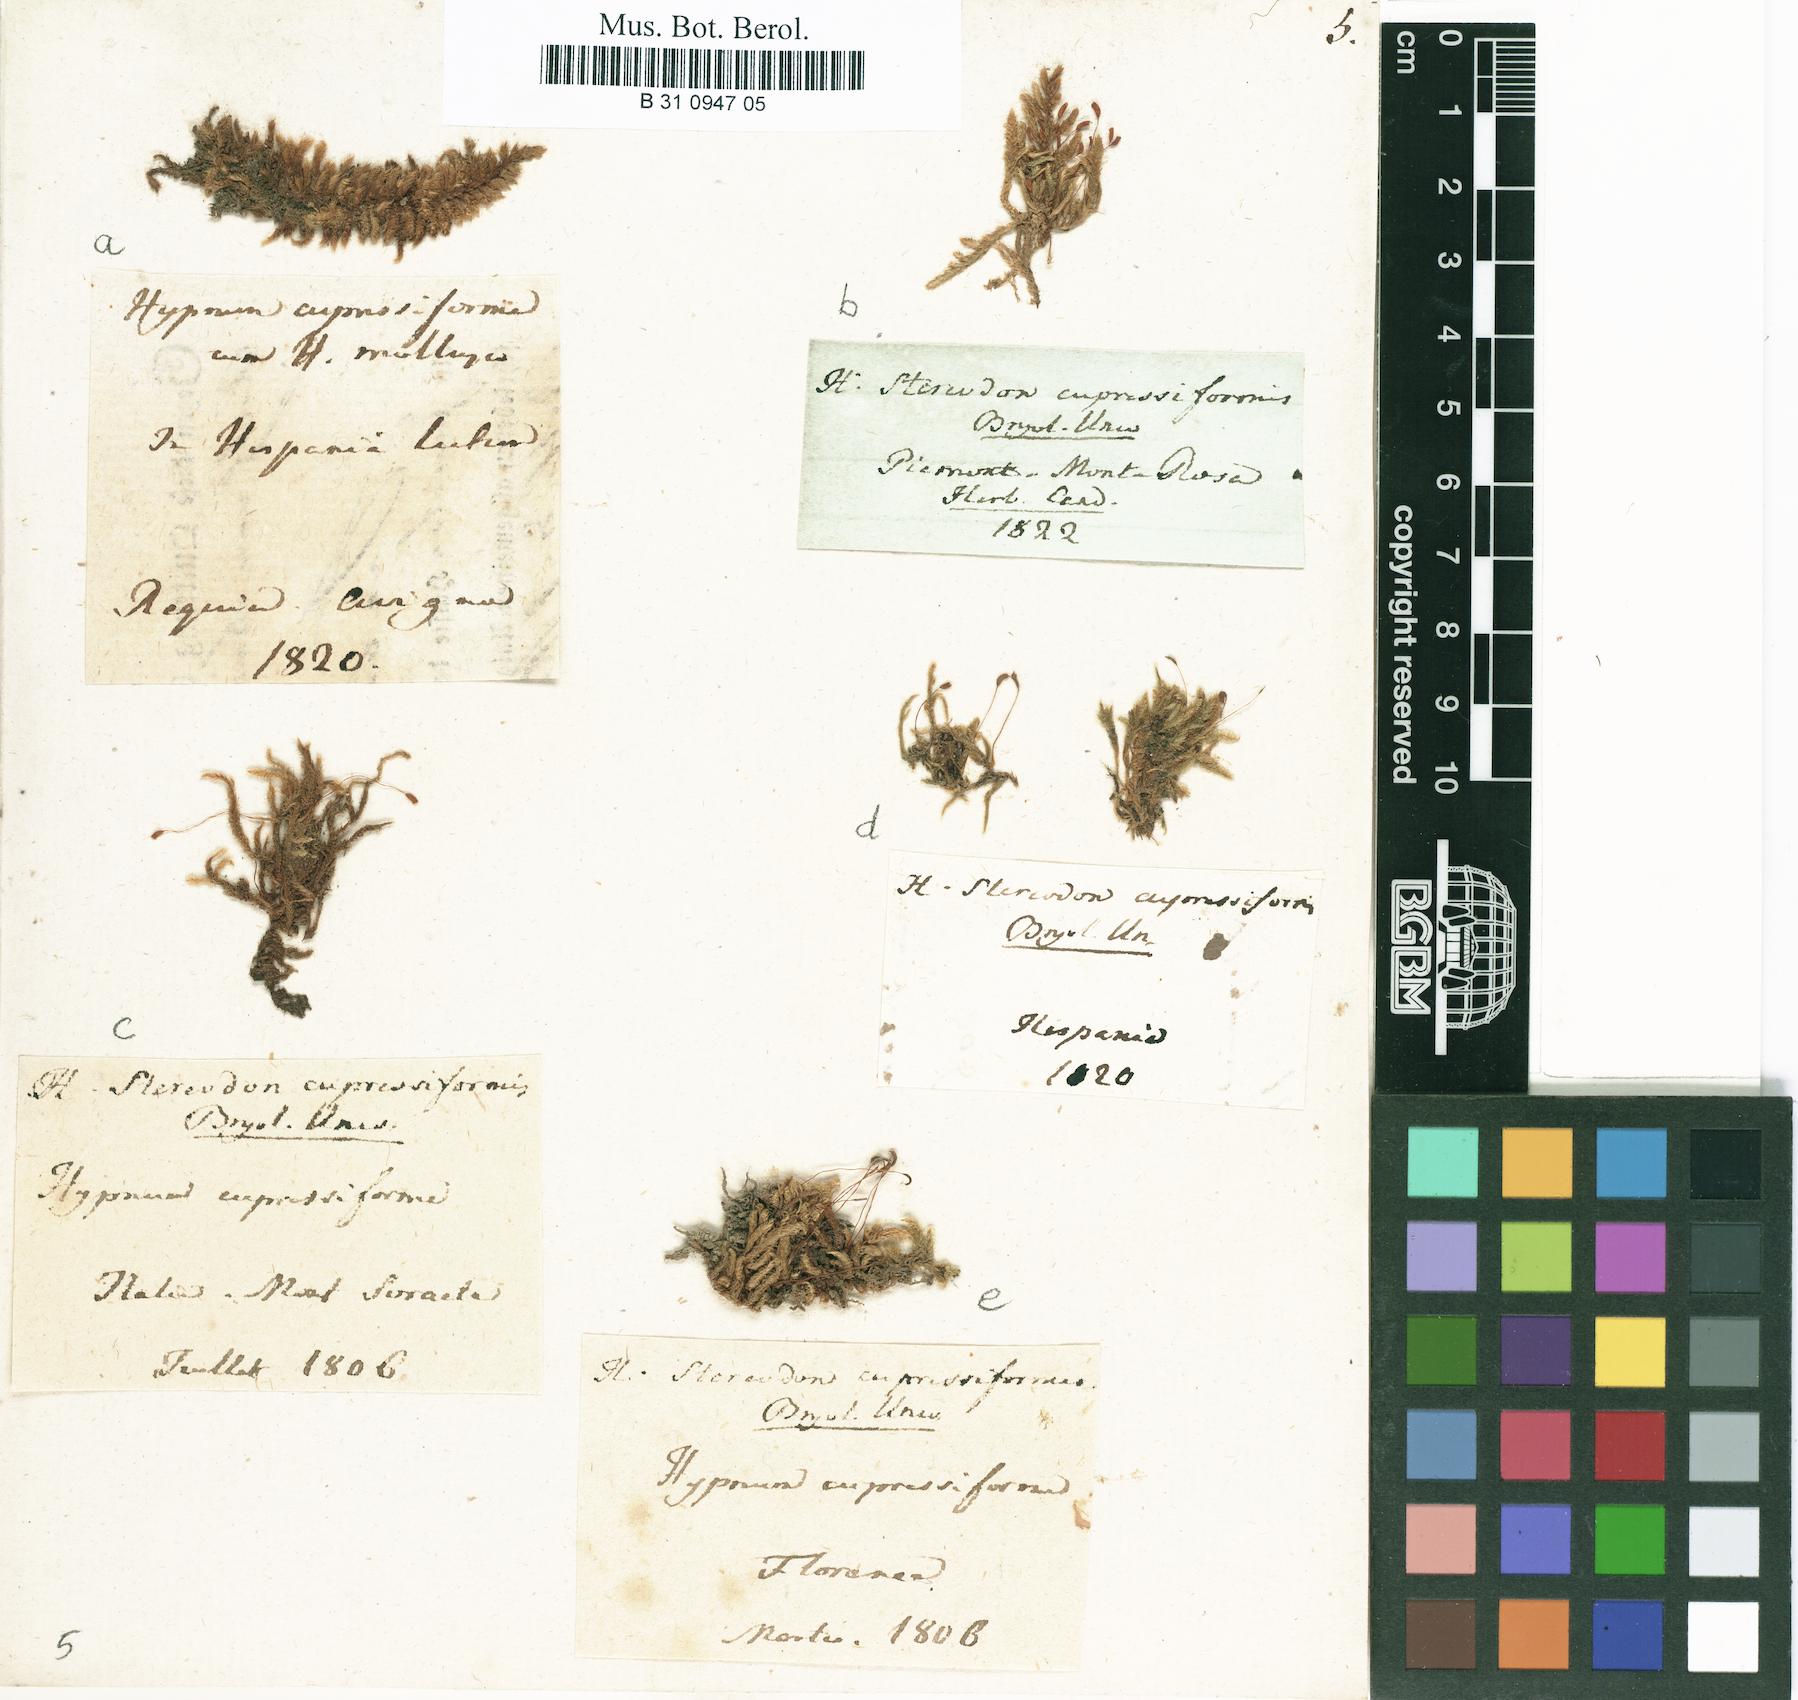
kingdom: Plantae
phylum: Bryophyta
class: Bryopsida
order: Hypnales
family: Hypnaceae
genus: Hypnum
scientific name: Hypnum cupressiforme
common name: Cypress-leaved plait-moss
